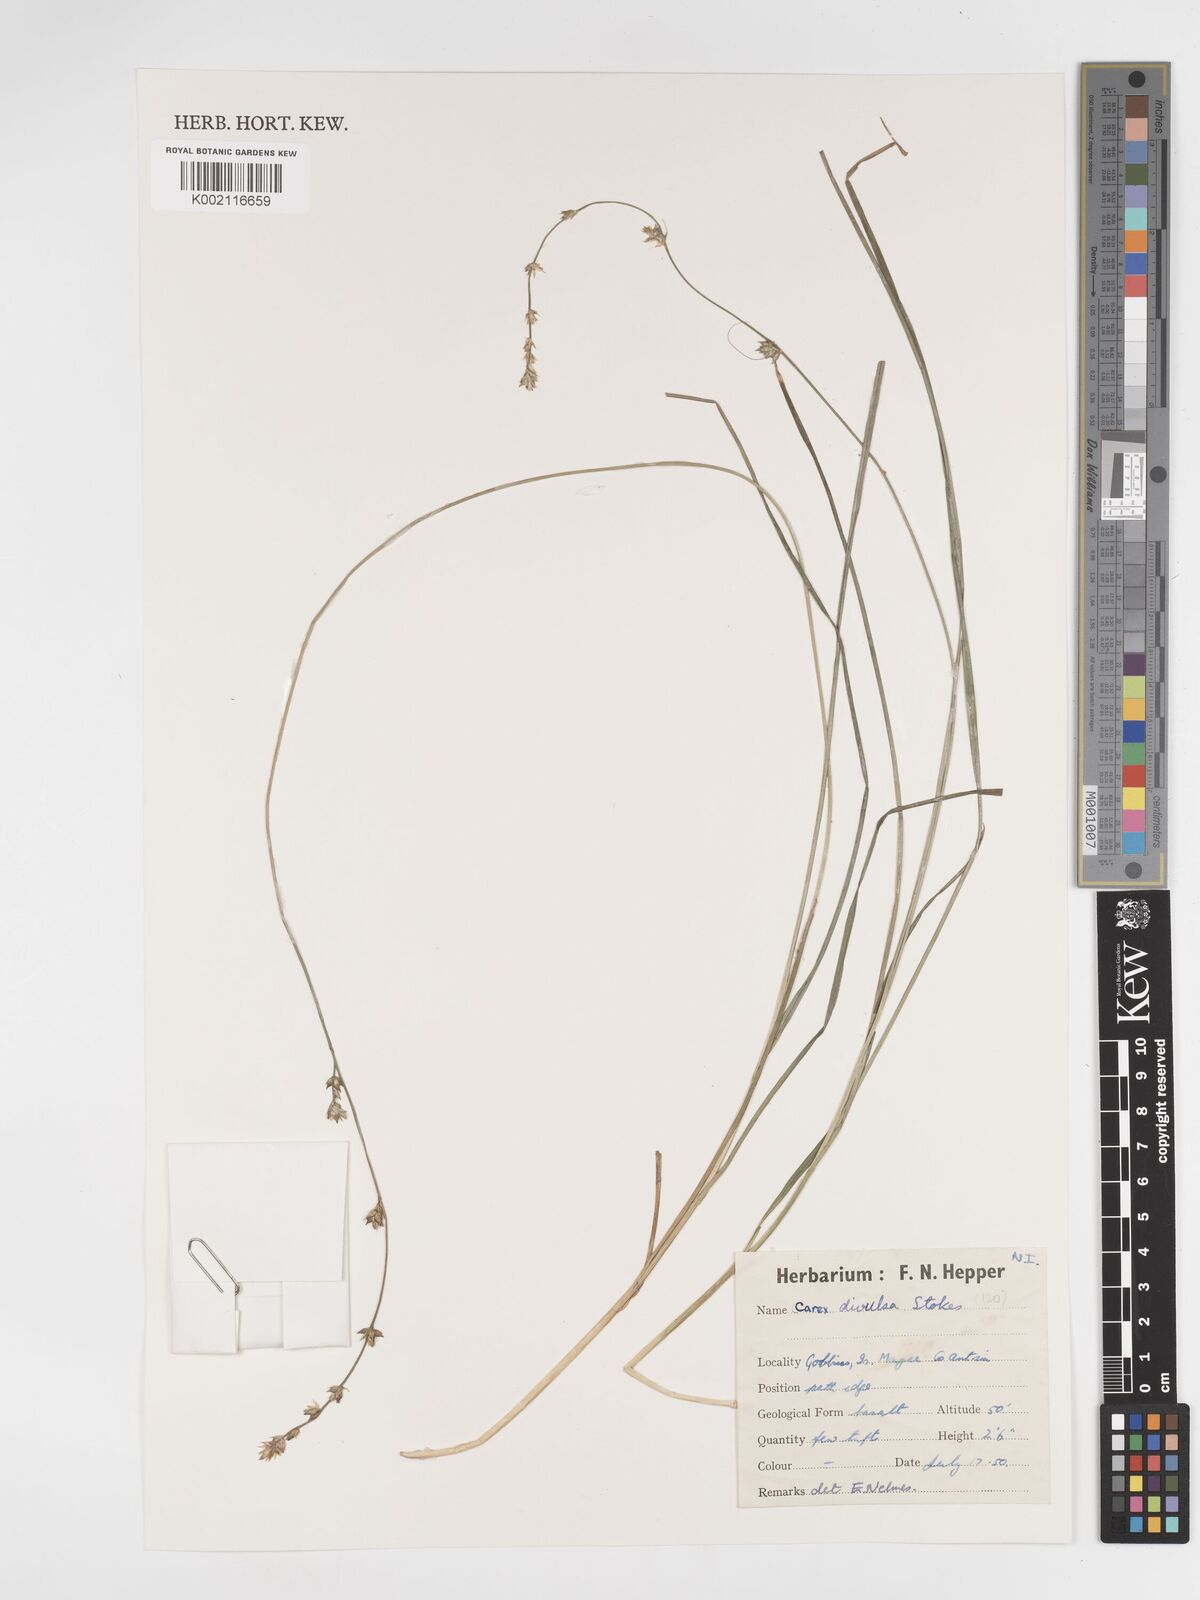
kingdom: Plantae
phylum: Tracheophyta
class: Liliopsida
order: Poales
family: Cyperaceae
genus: Carex
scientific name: Carex divulsa
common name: Grassland sedge
